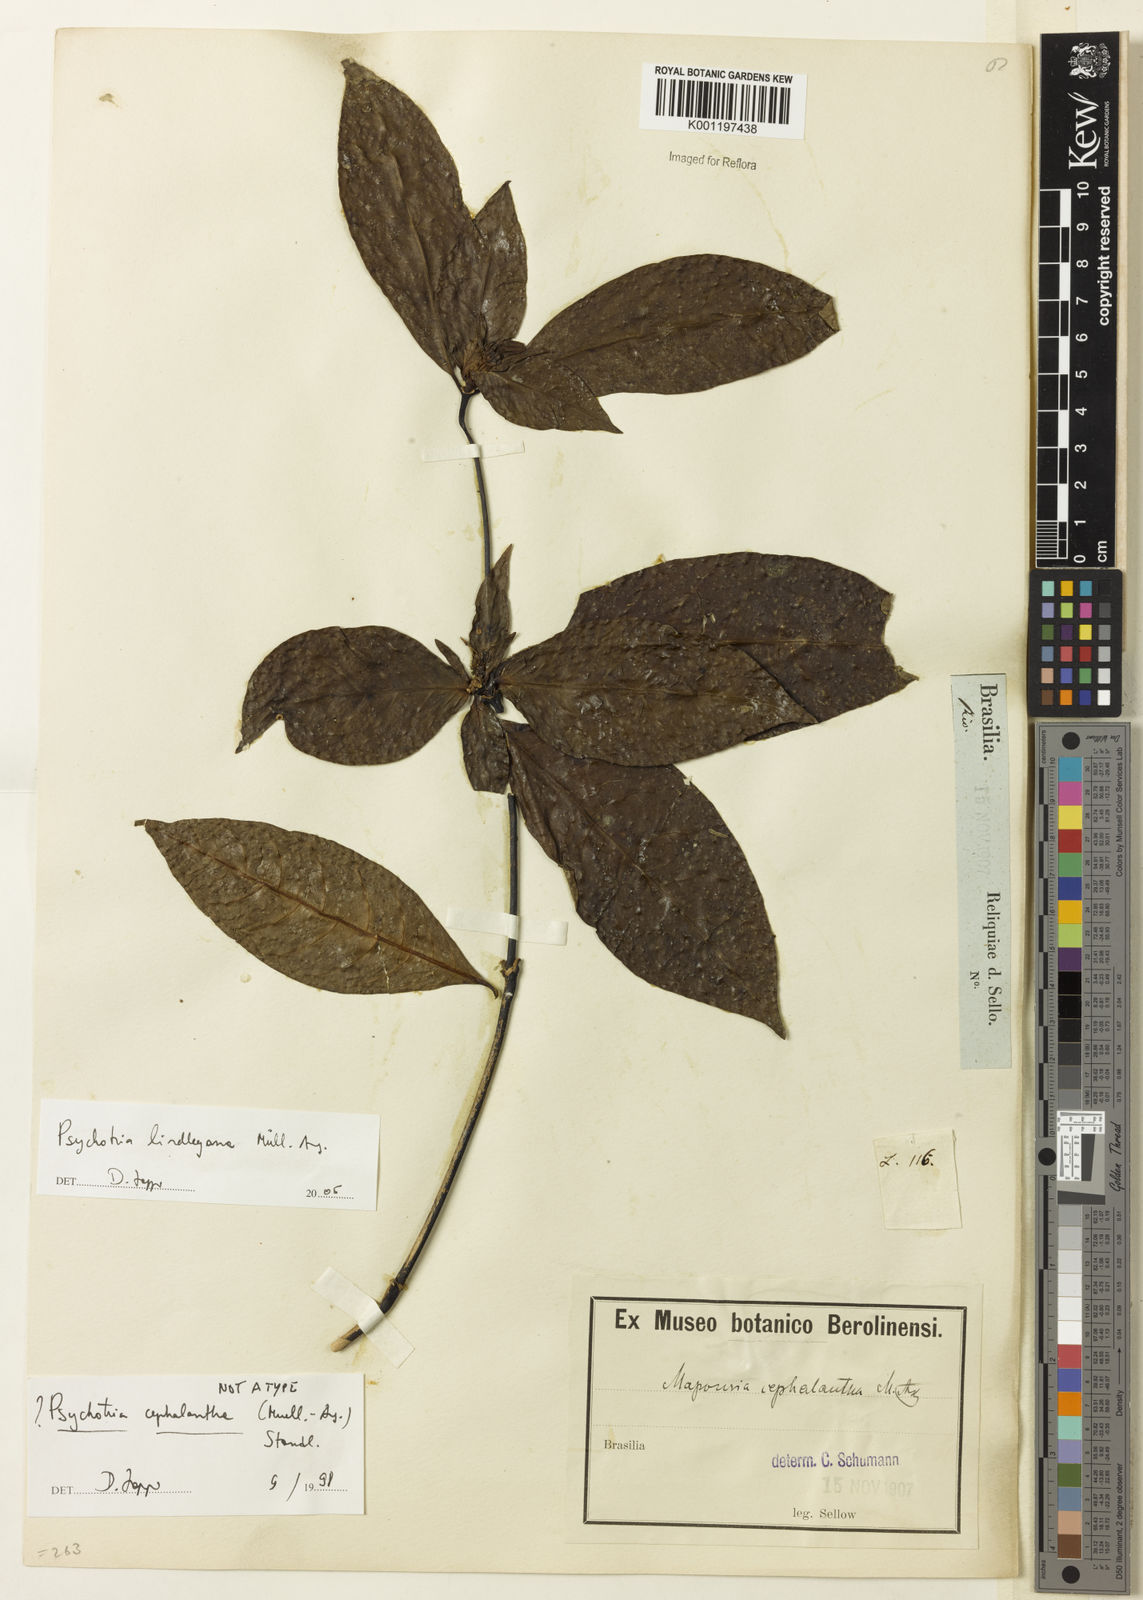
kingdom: Plantae
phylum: Tracheophyta
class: Magnoliopsida
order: Gentianales
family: Rubiaceae
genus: Psychotria
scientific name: Psychotria
